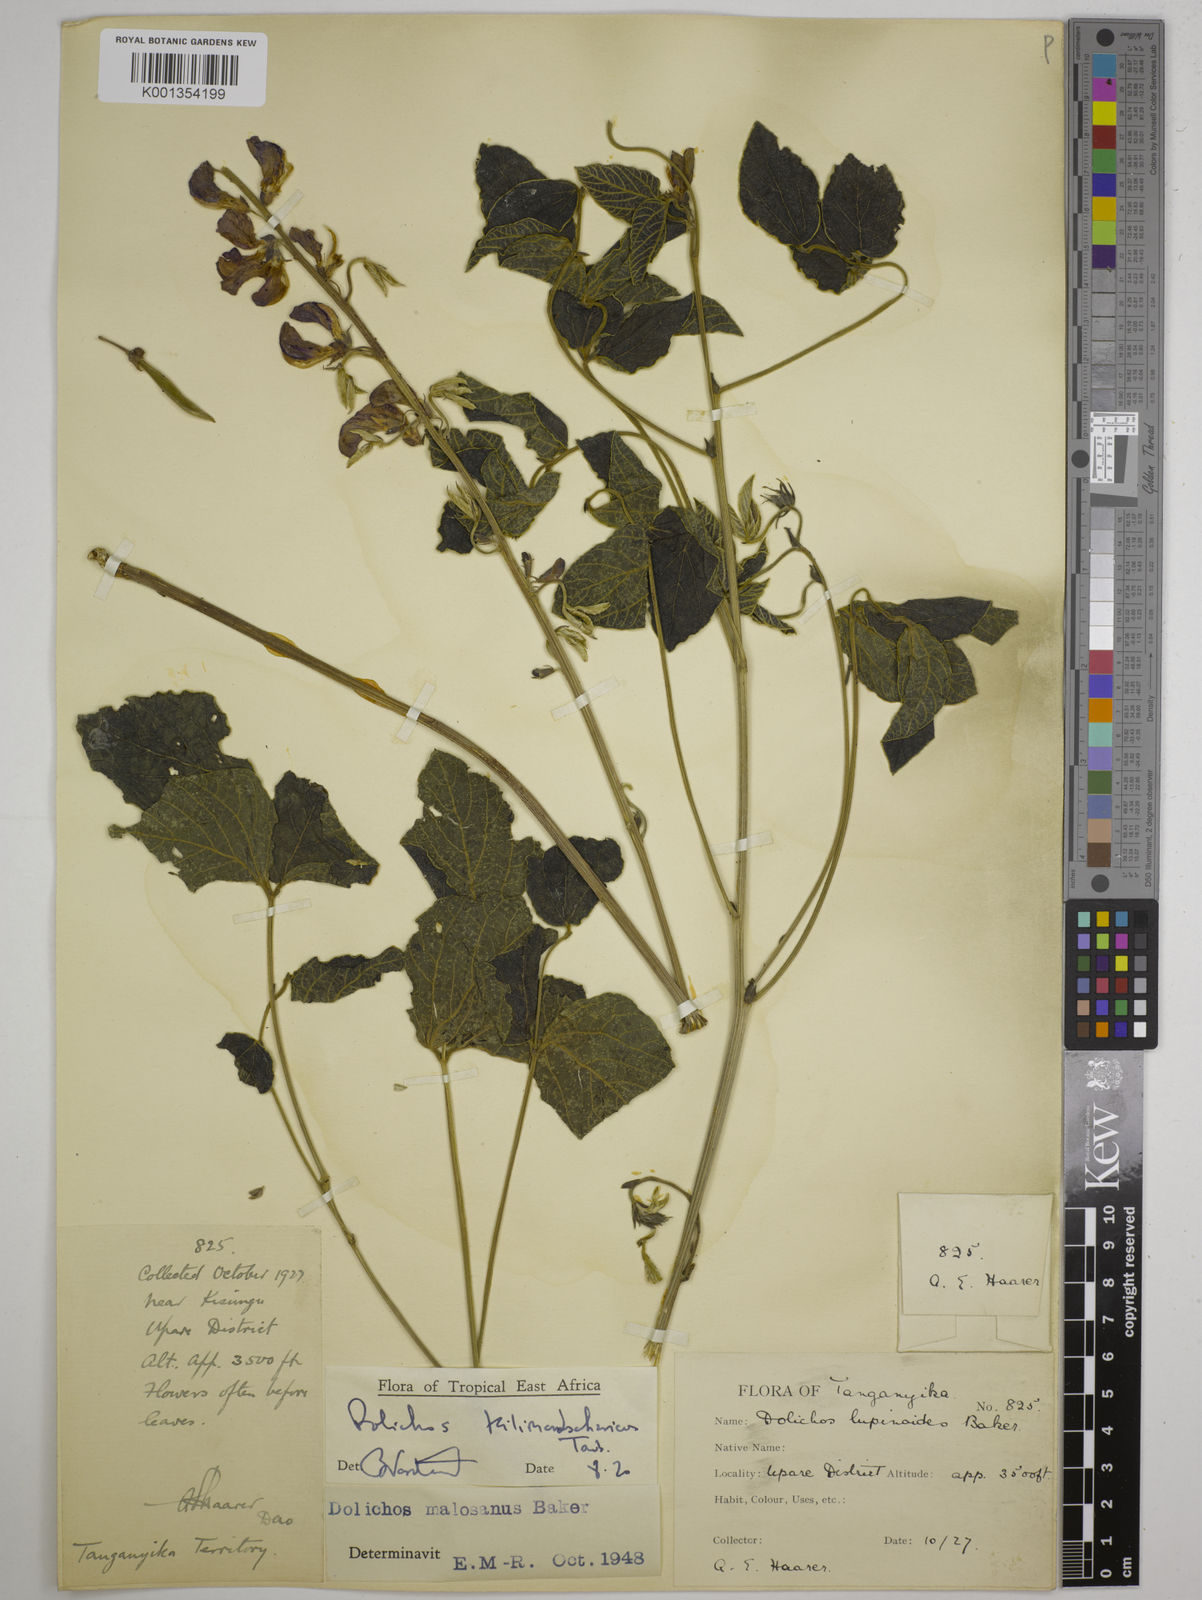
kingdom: Plantae
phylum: Tracheophyta
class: Magnoliopsida
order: Fabales
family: Fabaceae
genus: Dolichos
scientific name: Dolichos kilimandscharicus
